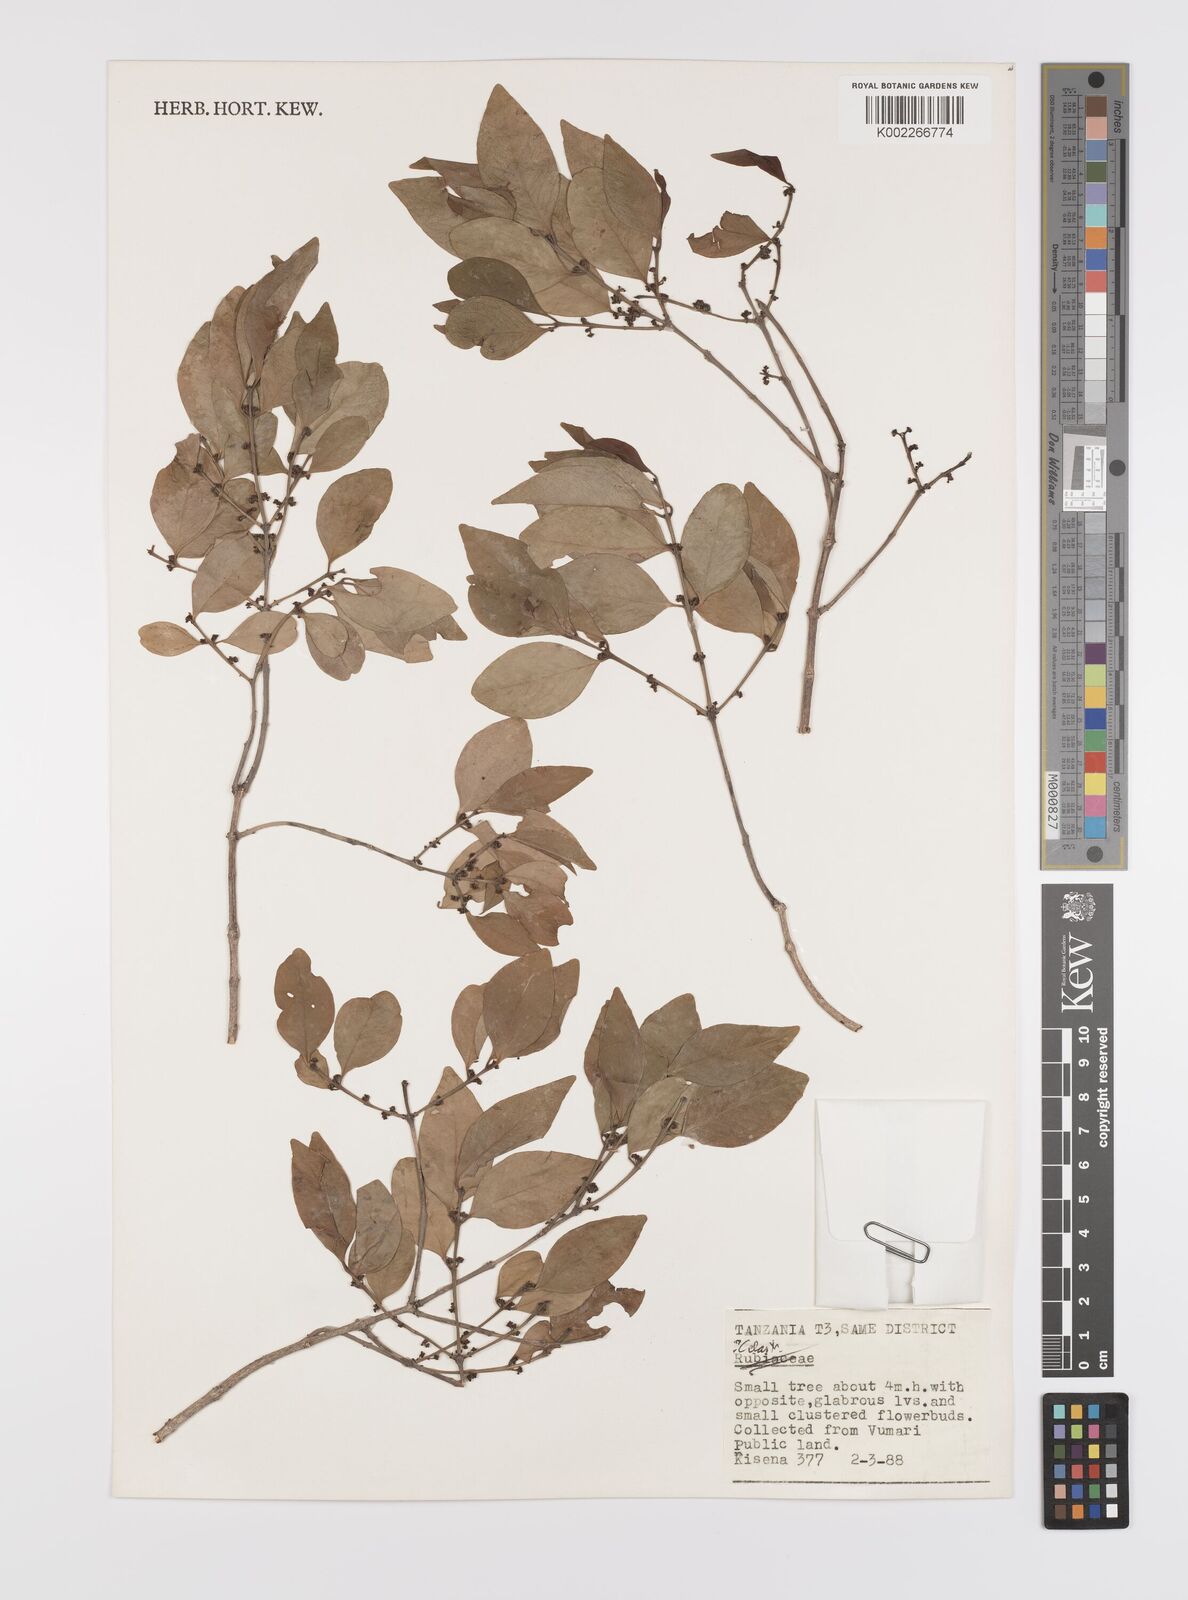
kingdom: Plantae
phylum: Tracheophyta
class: Magnoliopsida
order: Celastrales
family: Celastraceae
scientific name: Celastraceae
